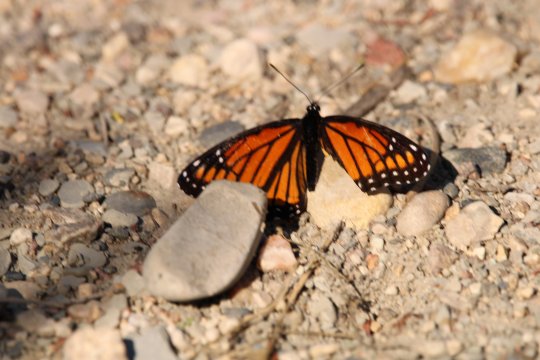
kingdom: Animalia
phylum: Arthropoda
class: Insecta
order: Lepidoptera
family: Nymphalidae
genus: Limenitis
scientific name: Limenitis archippus
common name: Viceroy
